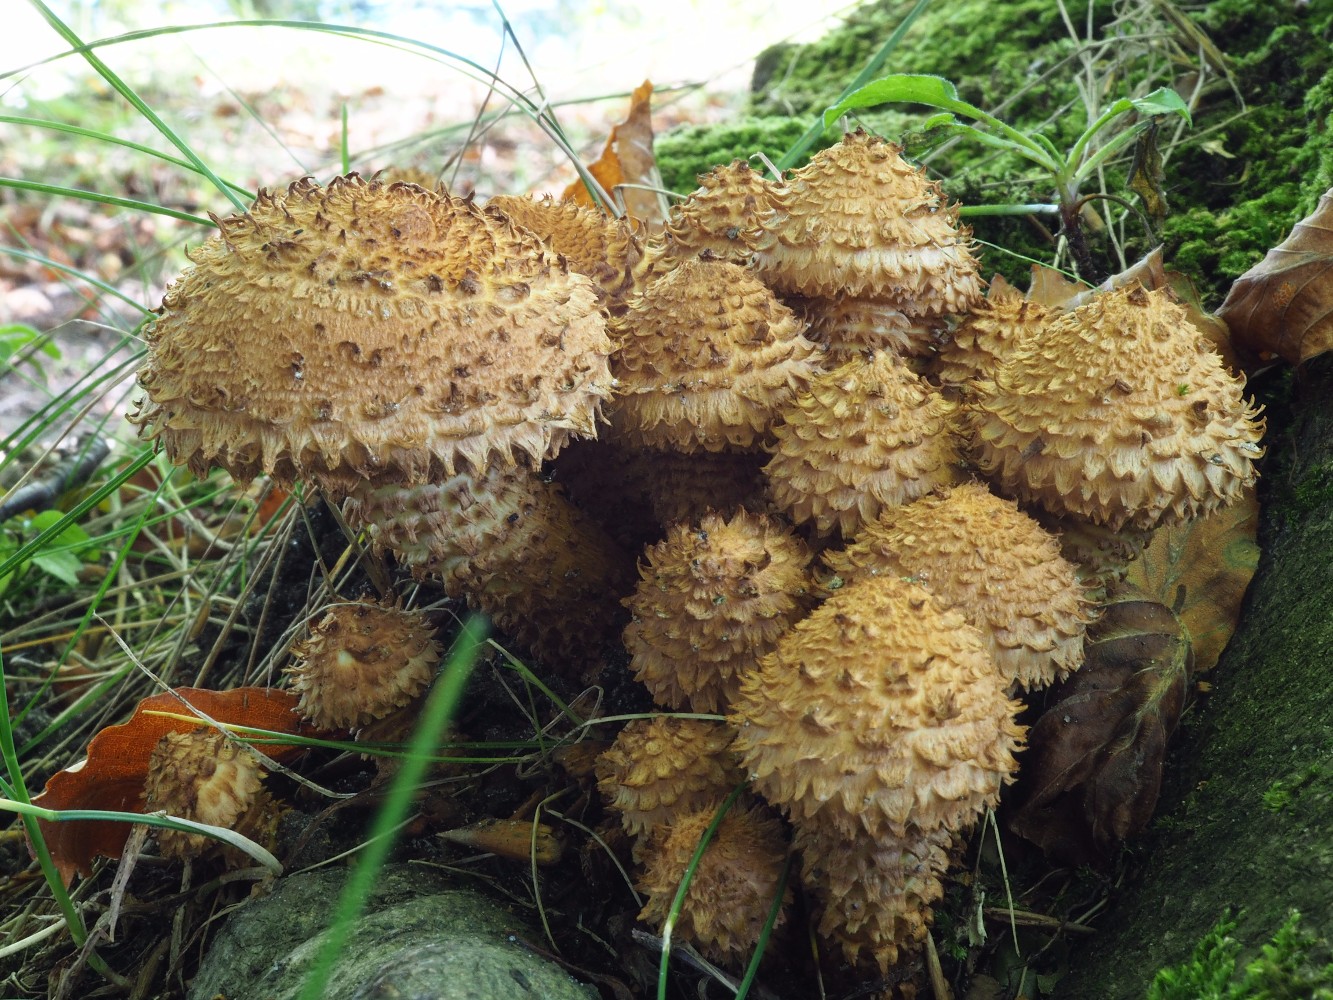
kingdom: Fungi
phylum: Basidiomycota
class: Agaricomycetes
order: Agaricales
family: Strophariaceae
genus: Pholiota
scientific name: Pholiota squarrosa
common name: krumskællet skælhat
